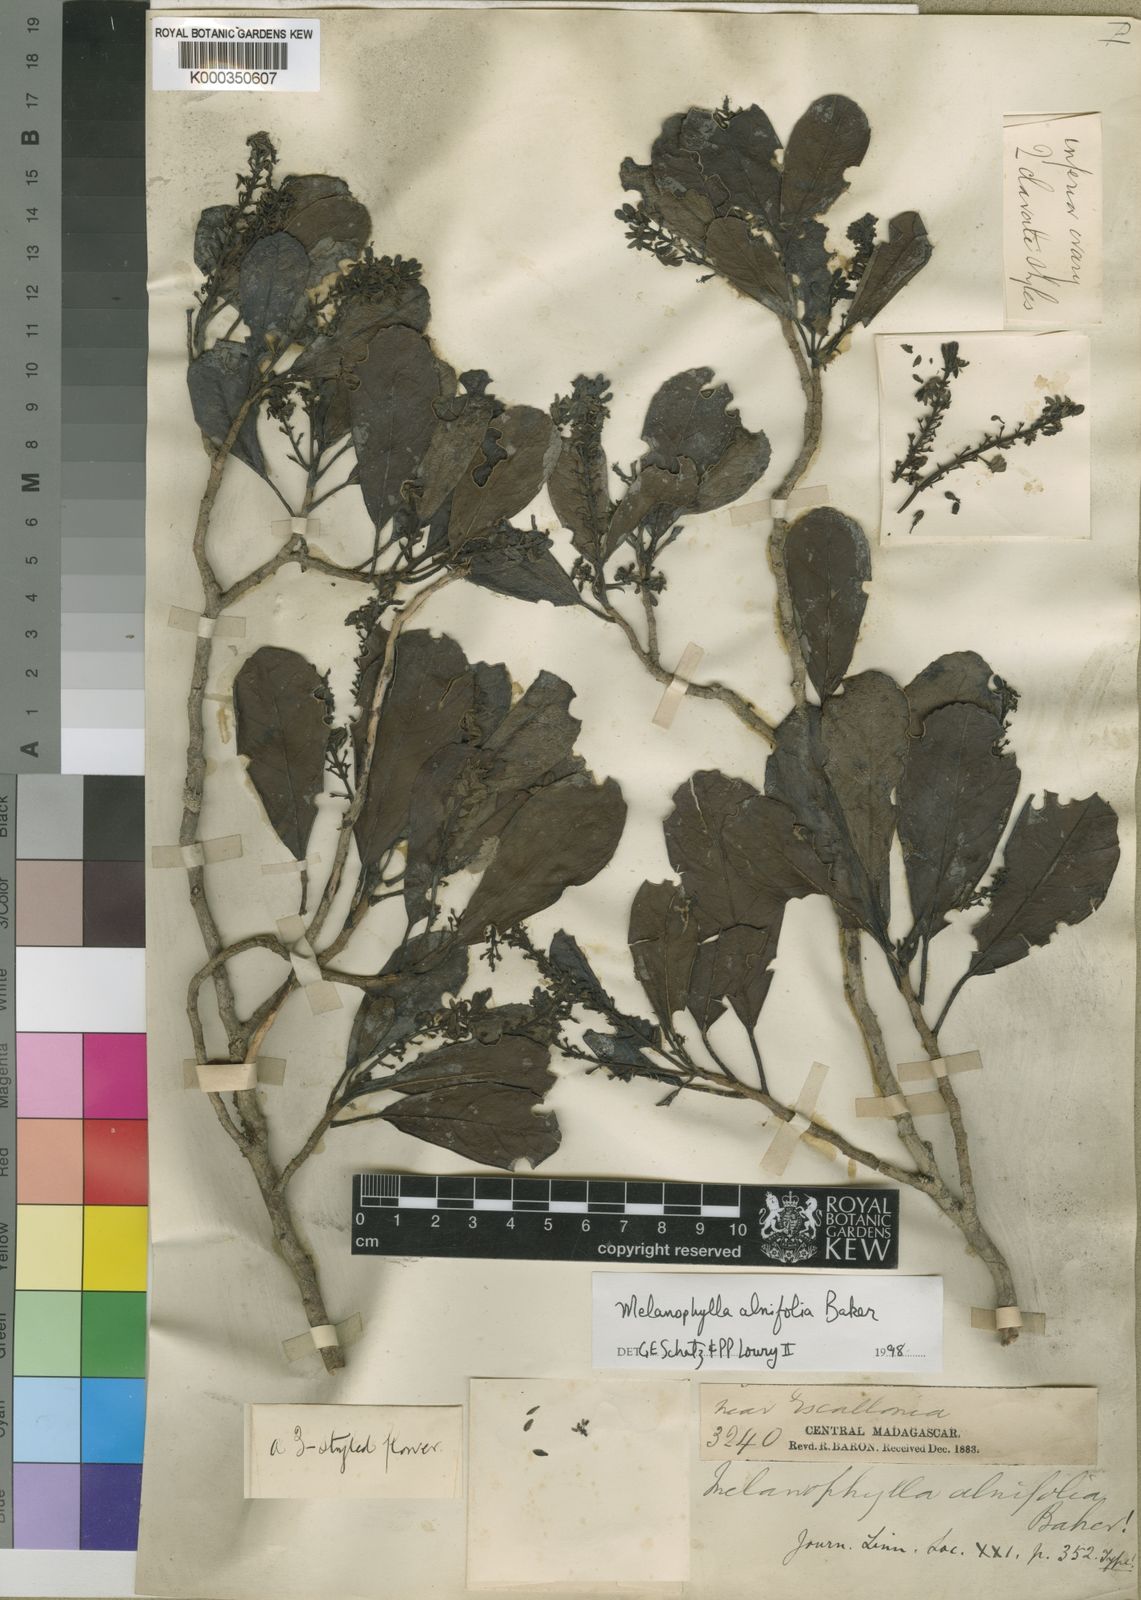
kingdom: Plantae
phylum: Tracheophyta
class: Magnoliopsida
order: Apiales
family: Torricelliaceae
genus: Melanophylla
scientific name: Melanophylla alnifolia
